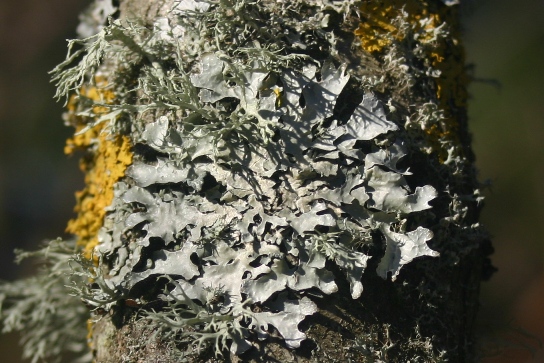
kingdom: Fungi
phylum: Ascomycota
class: Lecanoromycetes
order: Lecanorales
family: Parmeliaceae
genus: Parmelia
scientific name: Parmelia sulcata
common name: rynket skållav
